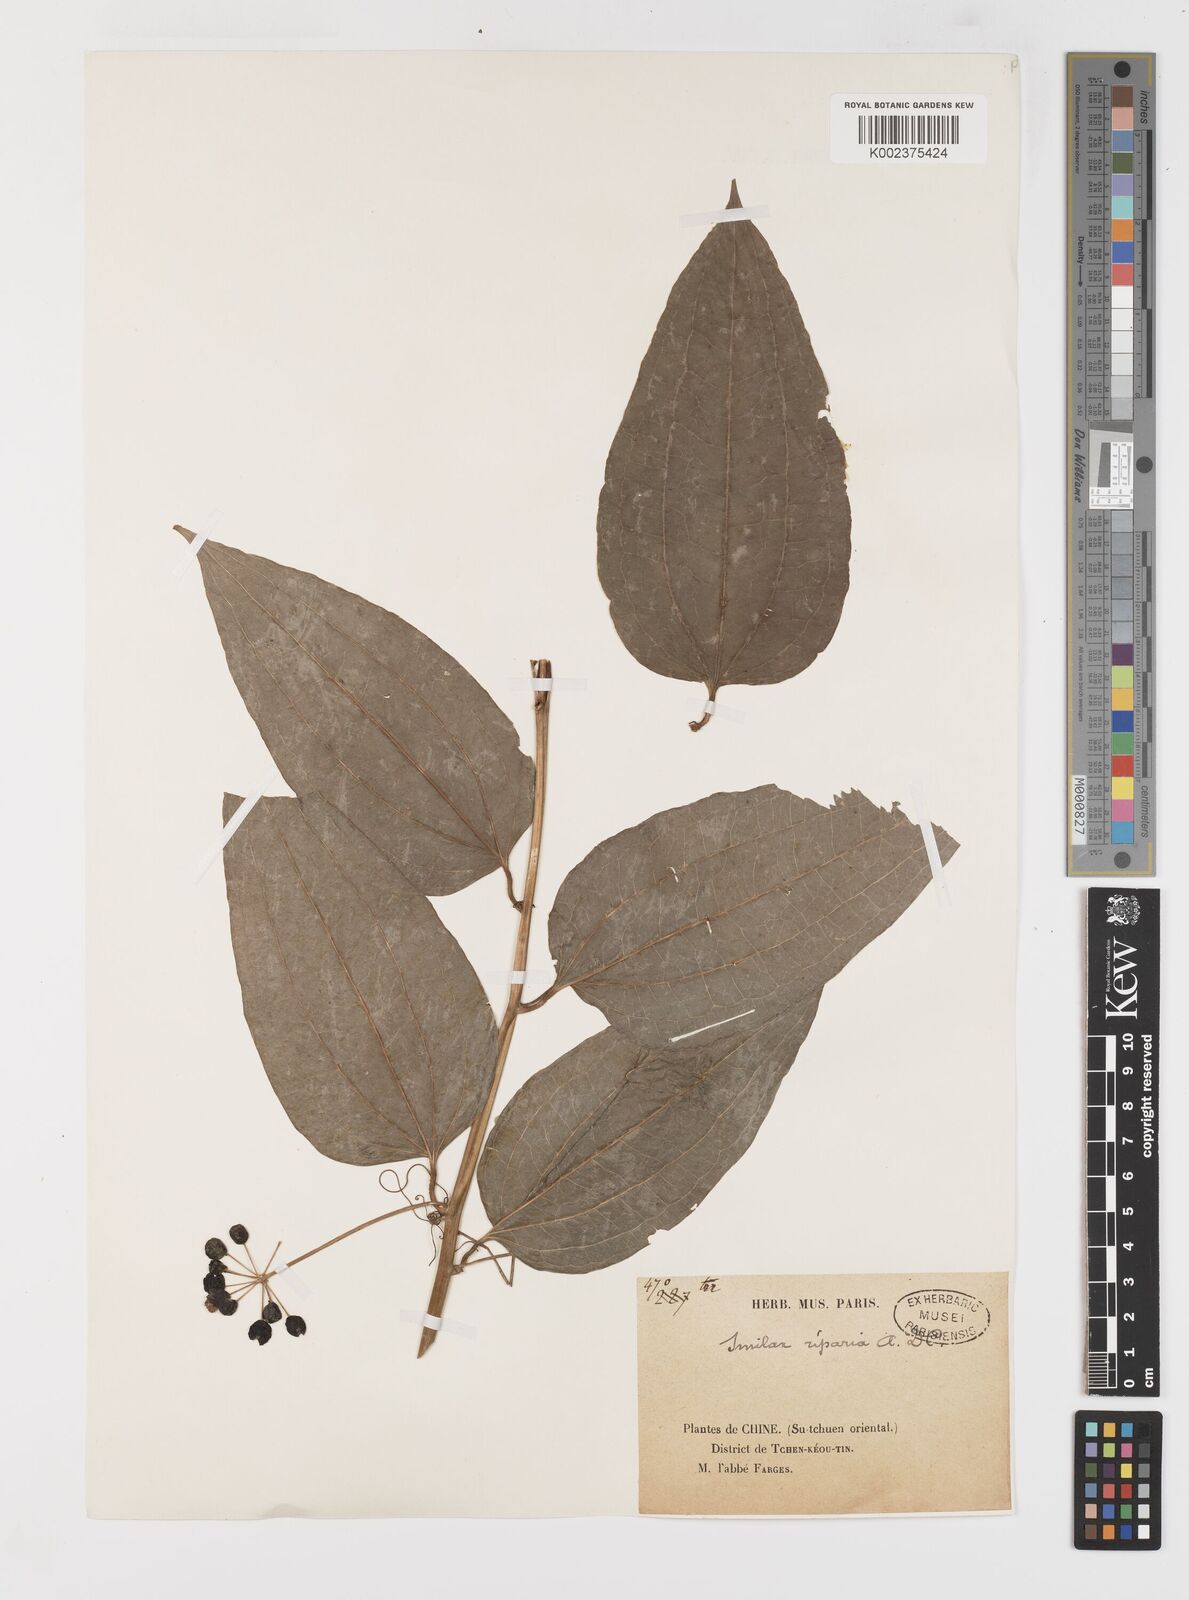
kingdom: Plantae
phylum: Tracheophyta
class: Liliopsida
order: Liliales
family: Smilacaceae
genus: Smilax
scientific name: Smilax riparia
